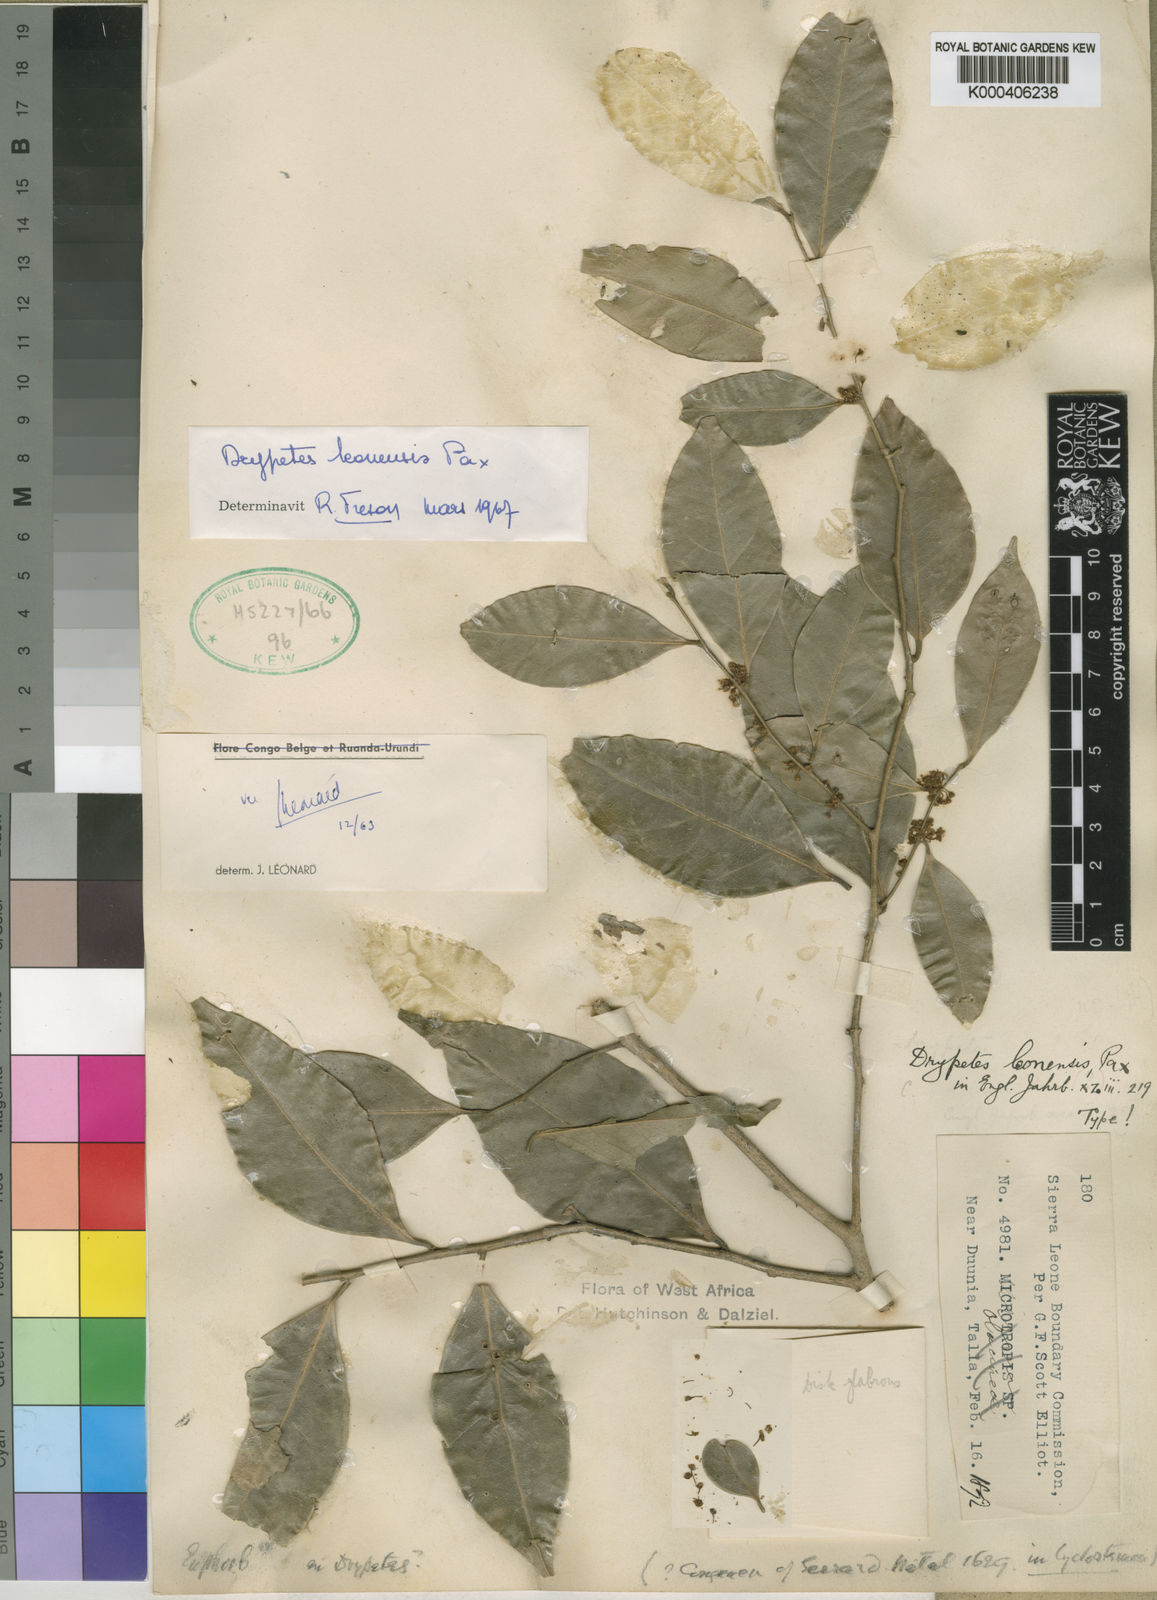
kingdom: Plantae
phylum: Tracheophyta
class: Magnoliopsida
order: Malpighiales
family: Putranjivaceae
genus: Drypetes
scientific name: Drypetes leonensis
